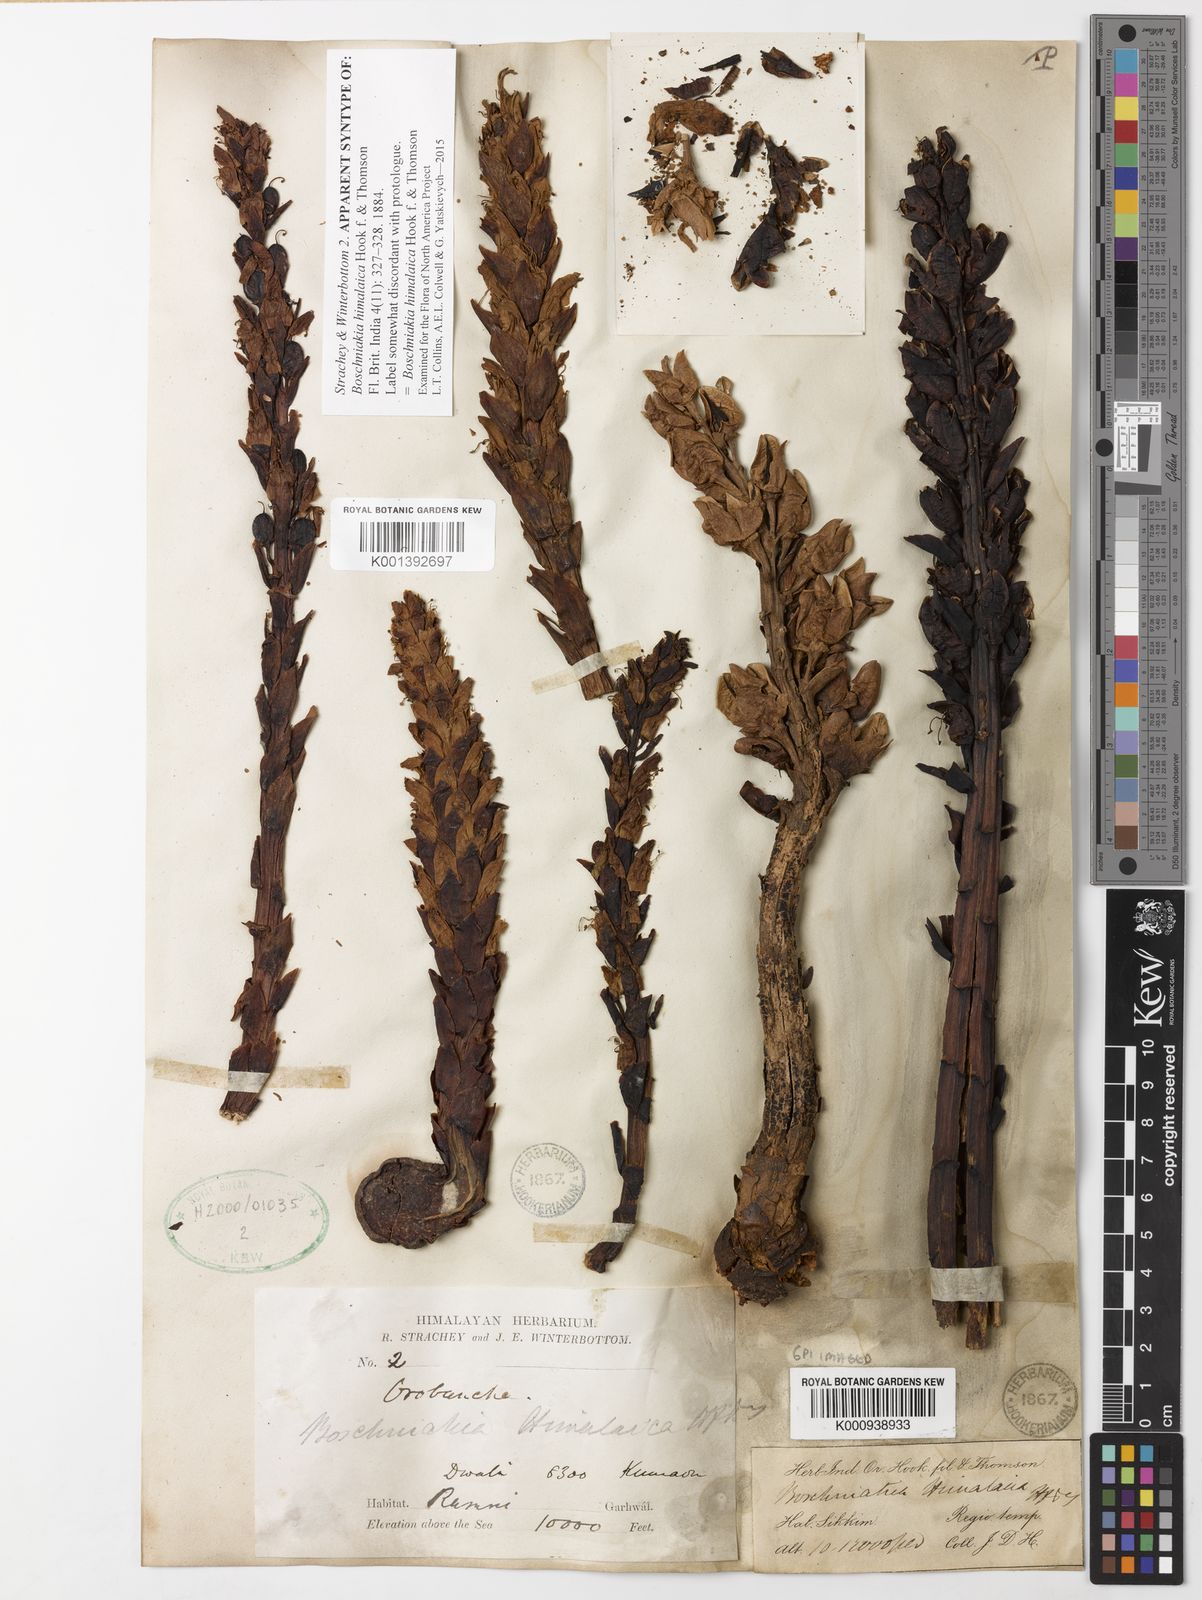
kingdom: Plantae
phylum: Tracheophyta
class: Magnoliopsida
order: Lamiales
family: Orobanchaceae
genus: Boschniakia
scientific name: Boschniakia himalaica
